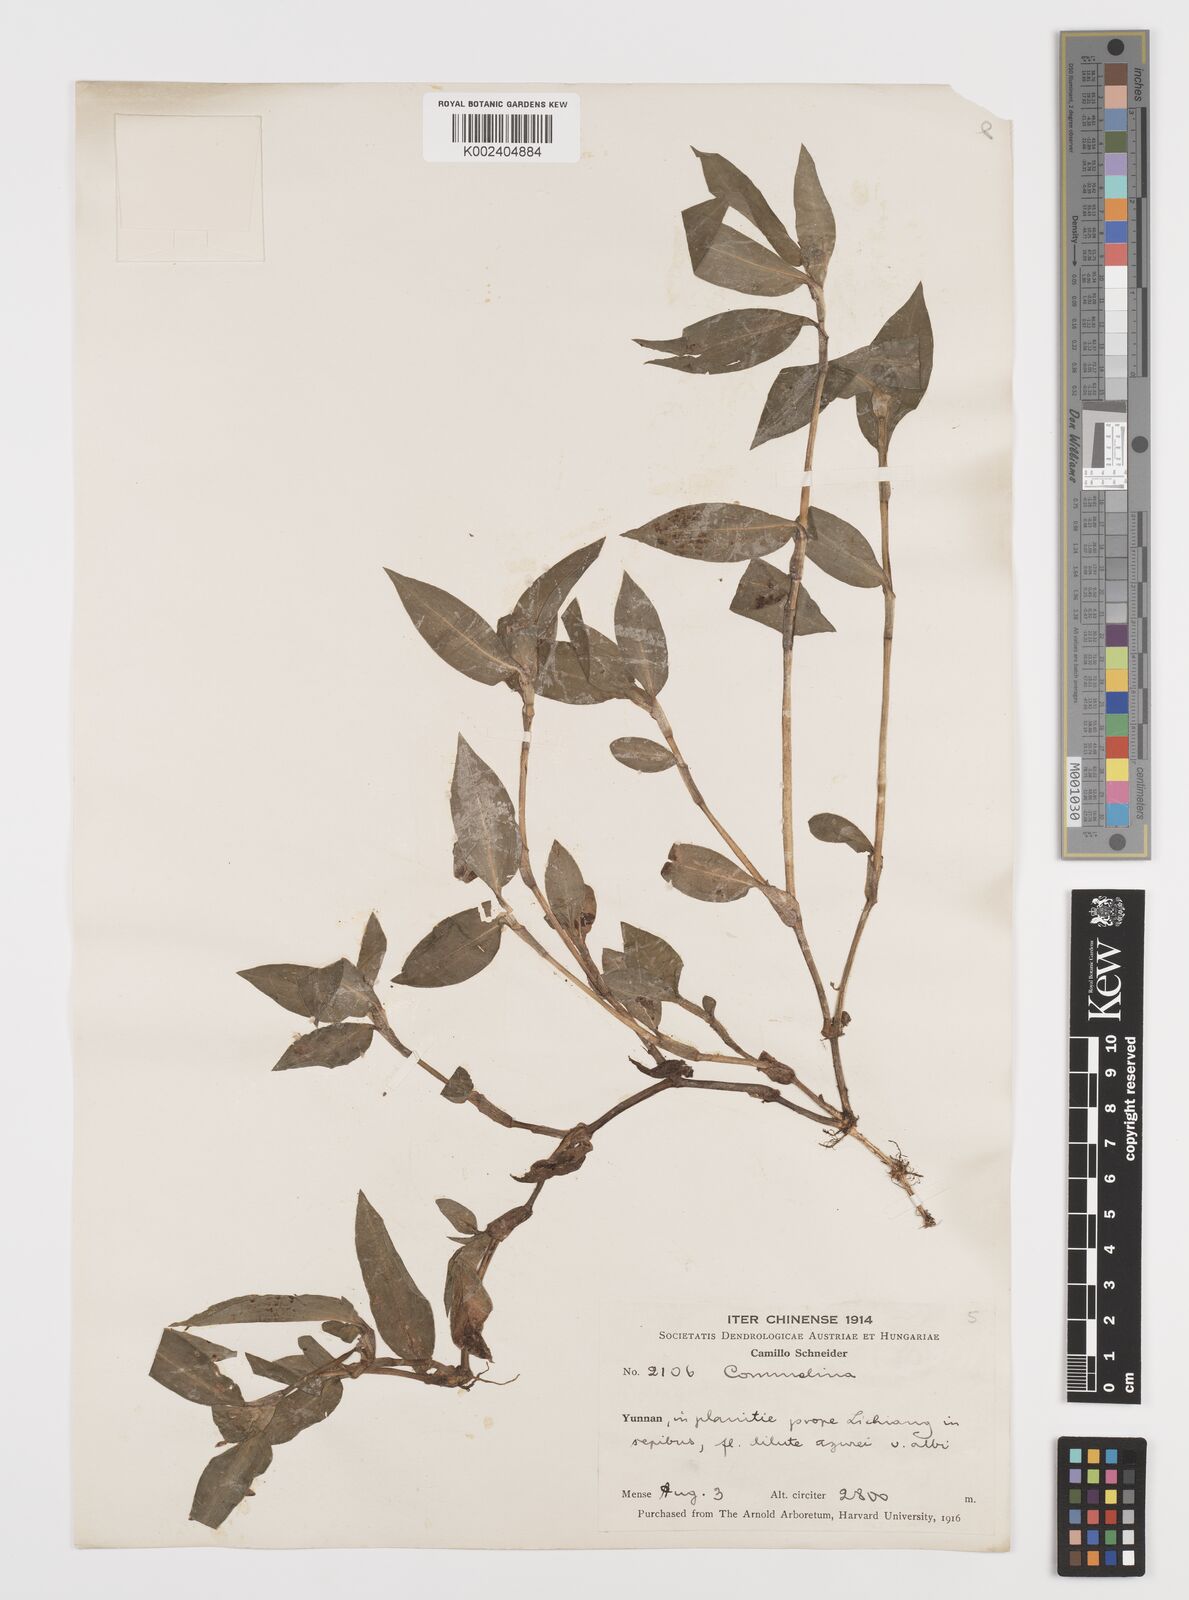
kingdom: Plantae
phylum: Tracheophyta
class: Liliopsida
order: Commelinales
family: Commelinaceae
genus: Commelina
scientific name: Commelina
